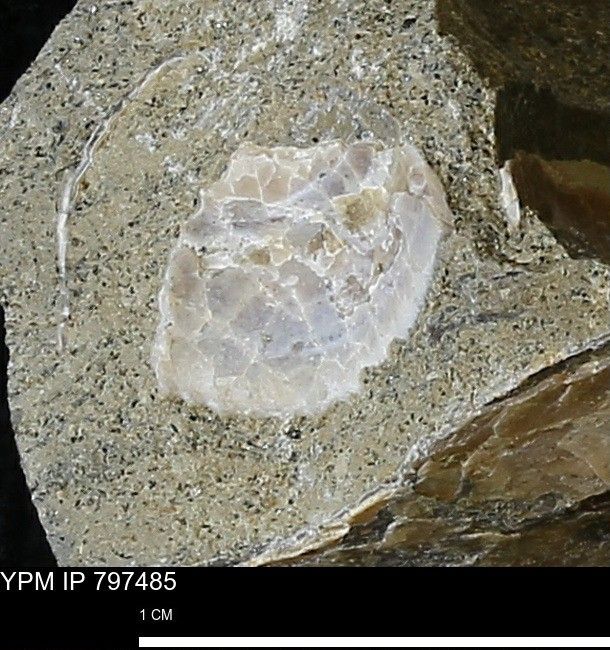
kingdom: Animalia
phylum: Mollusca
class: Bivalvia
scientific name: Bivalvia
